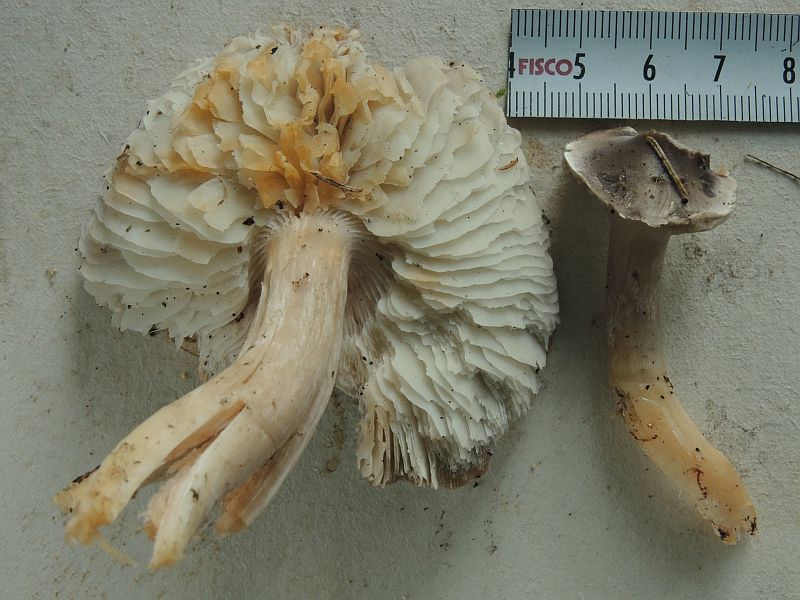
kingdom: Fungi
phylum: Basidiomycota
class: Agaricomycetes
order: Agaricales
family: Tricholomataceae
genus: Tricholoma
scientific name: Tricholoma saponaceum
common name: Soapy trich
